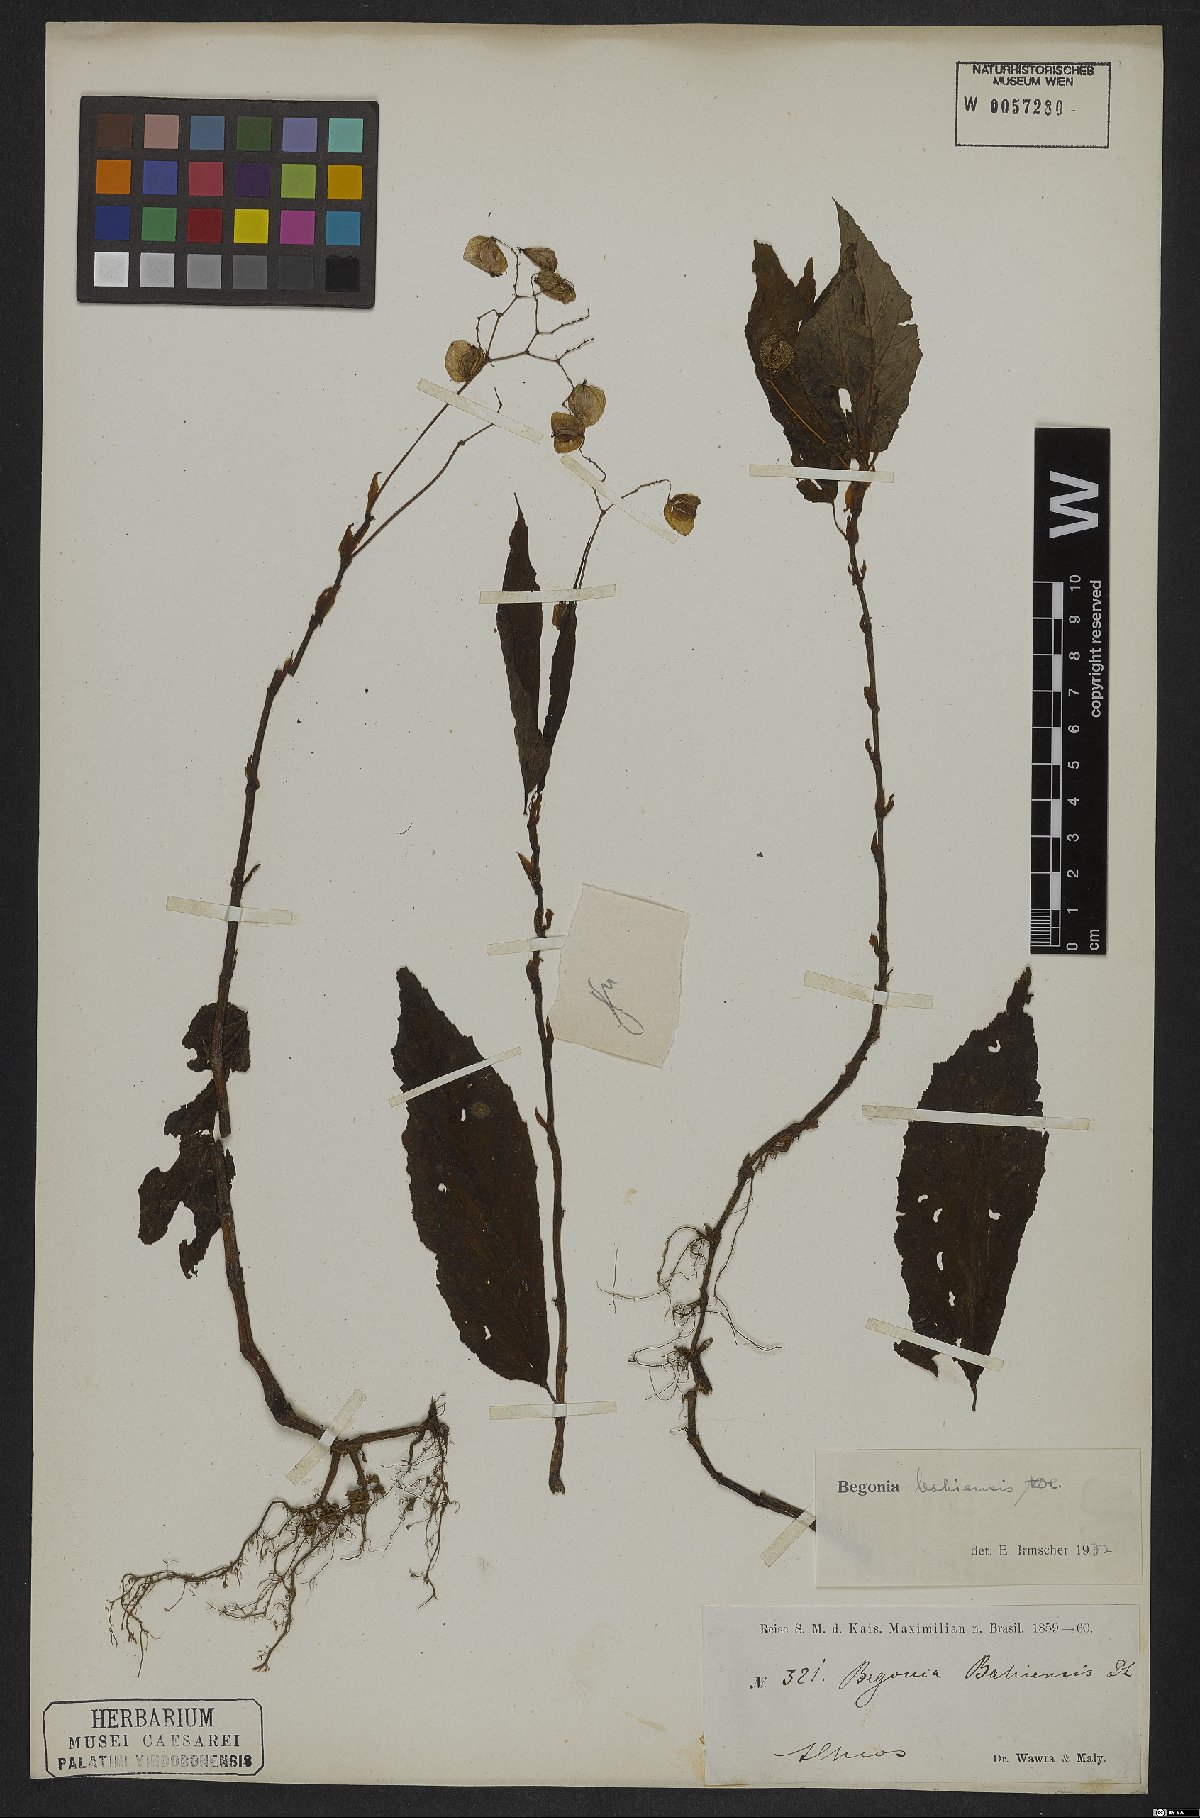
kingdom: Plantae
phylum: Tracheophyta
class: Magnoliopsida
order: Cucurbitales
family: Begoniaceae
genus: Begonia
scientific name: Begonia bahiensis
